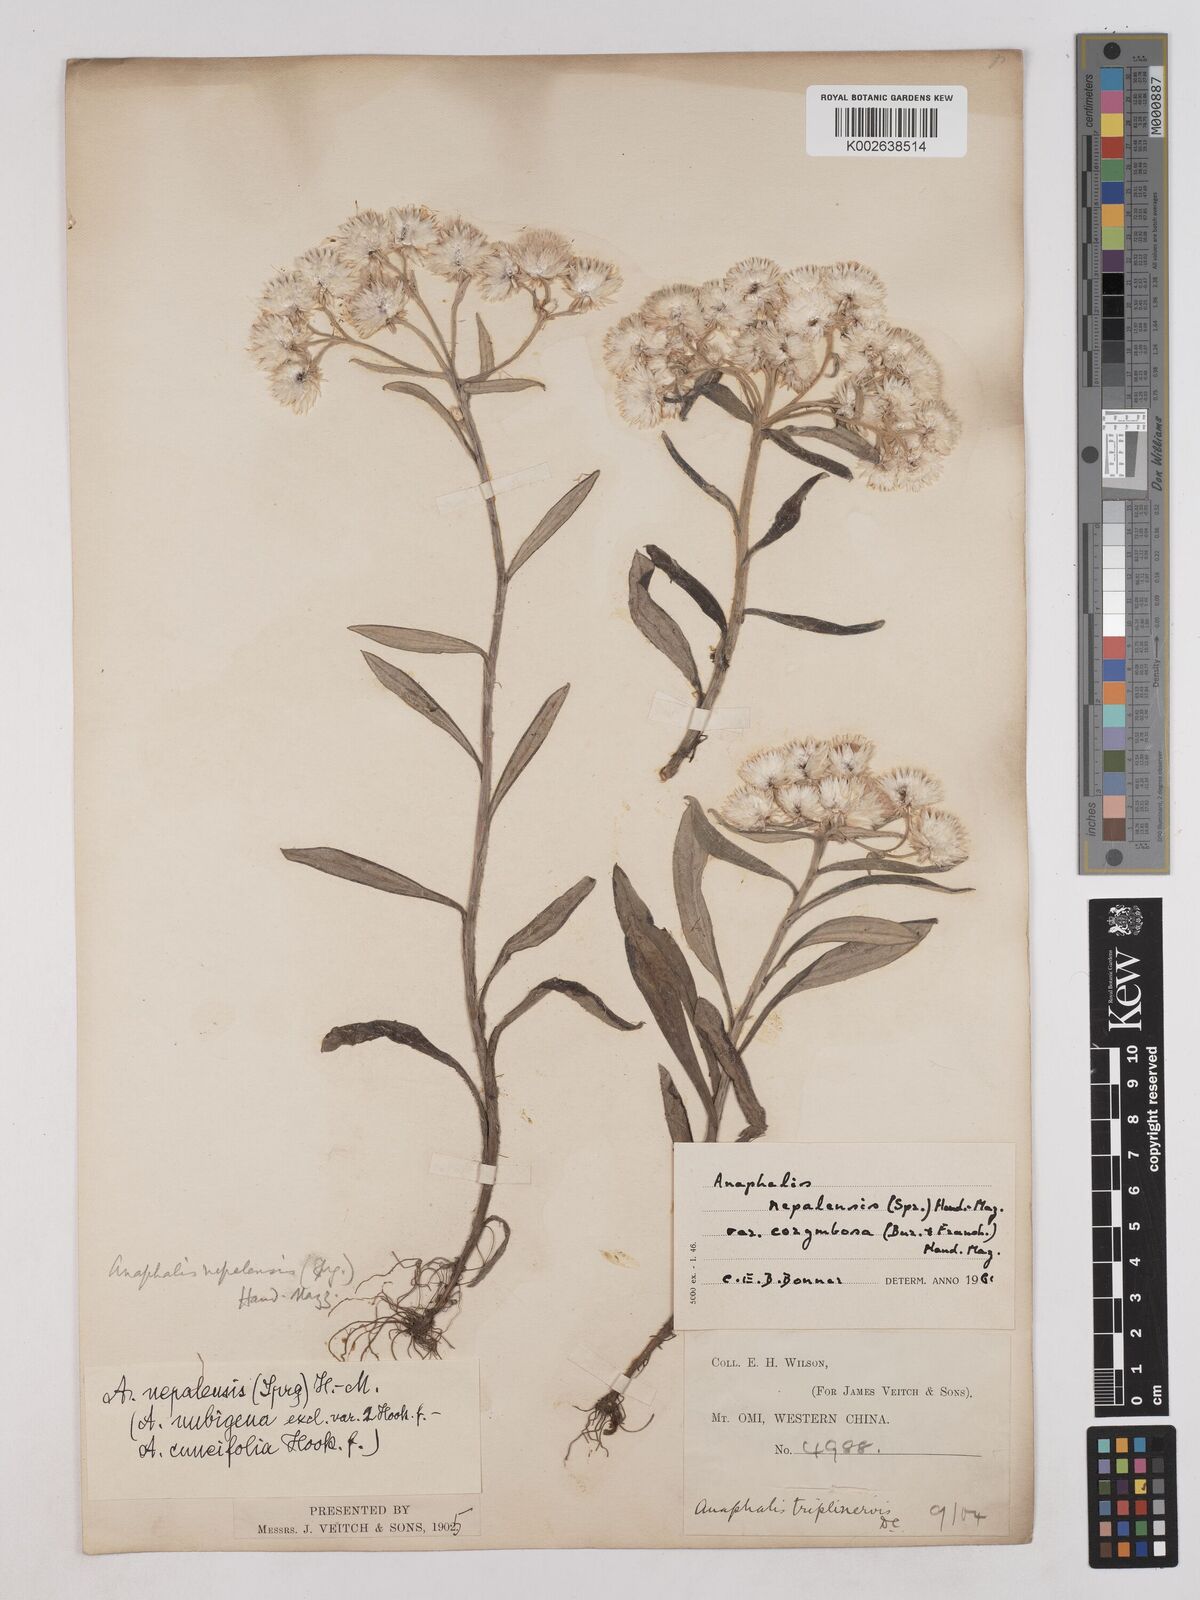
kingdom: Plantae
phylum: Tracheophyta
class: Magnoliopsida
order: Asterales
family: Asteraceae
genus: Anaphalis
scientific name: Anaphalis nepalensis
